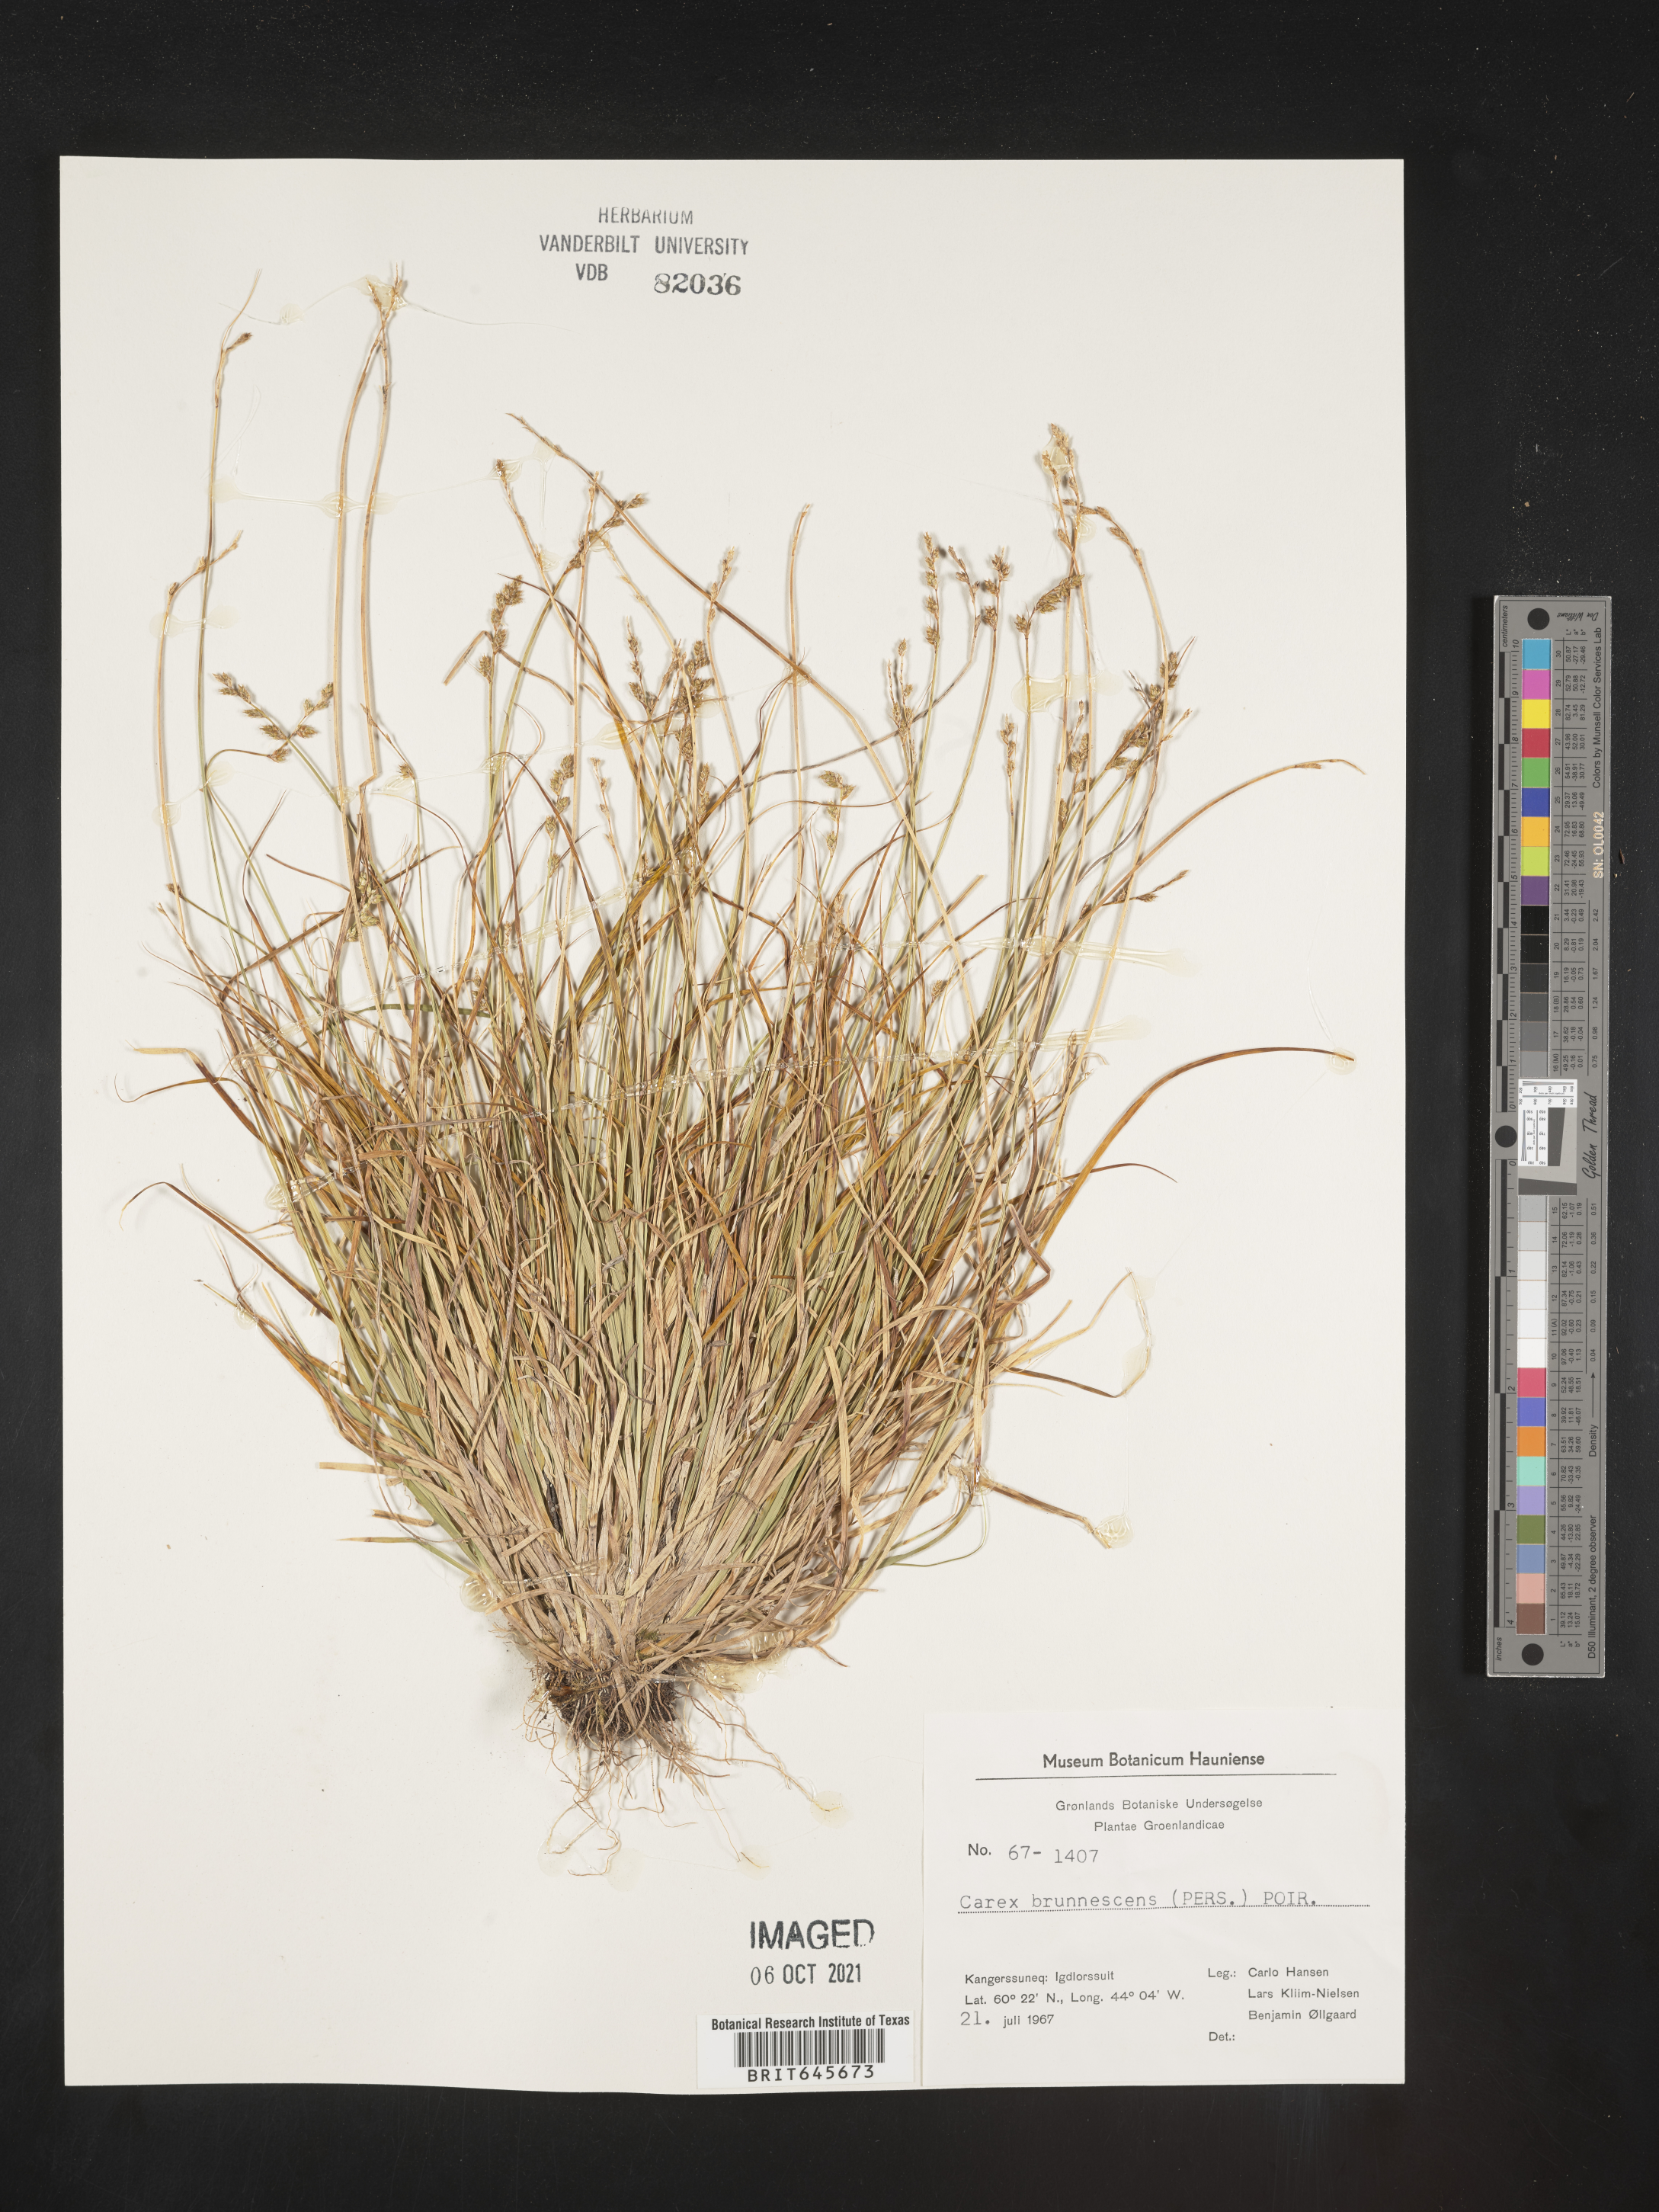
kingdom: Plantae
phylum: Tracheophyta
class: Liliopsida
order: Poales
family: Cyperaceae
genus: Carex
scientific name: Carex brunnescens
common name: Brown sedge
